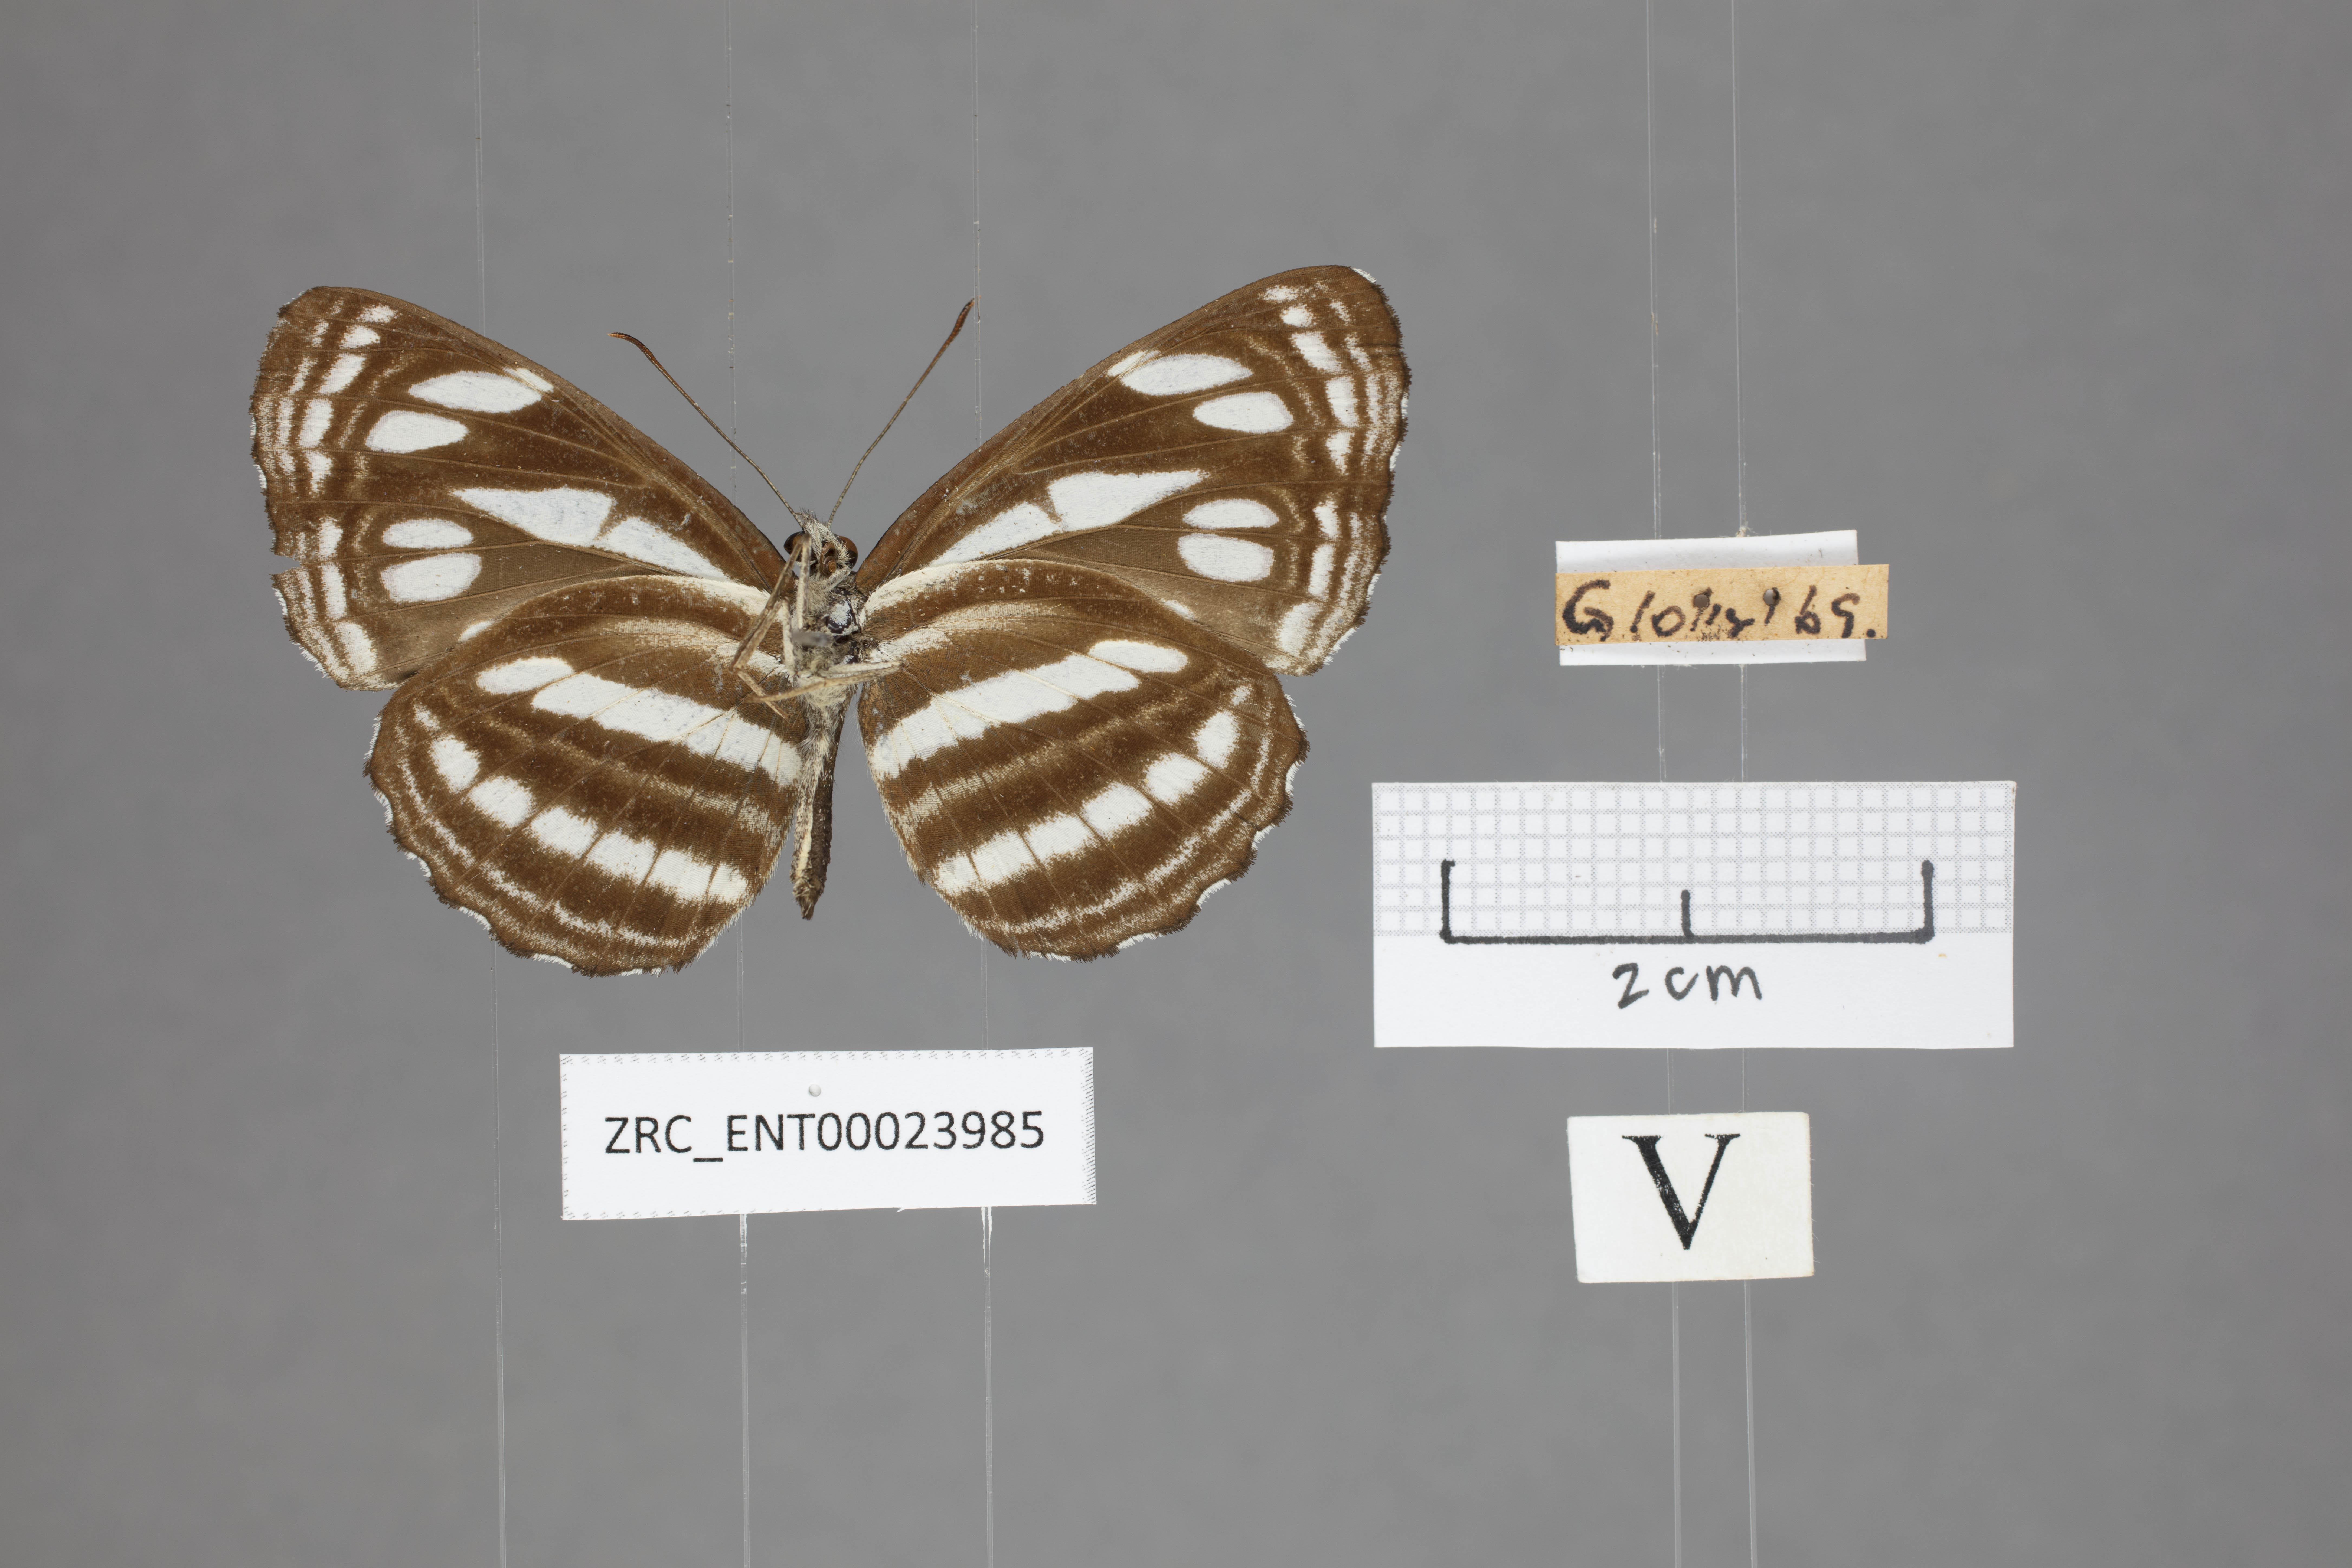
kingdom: Animalia
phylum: Arthropoda
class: Insecta
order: Lepidoptera
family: Nymphalidae
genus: Neptis
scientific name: Neptis duryodana
